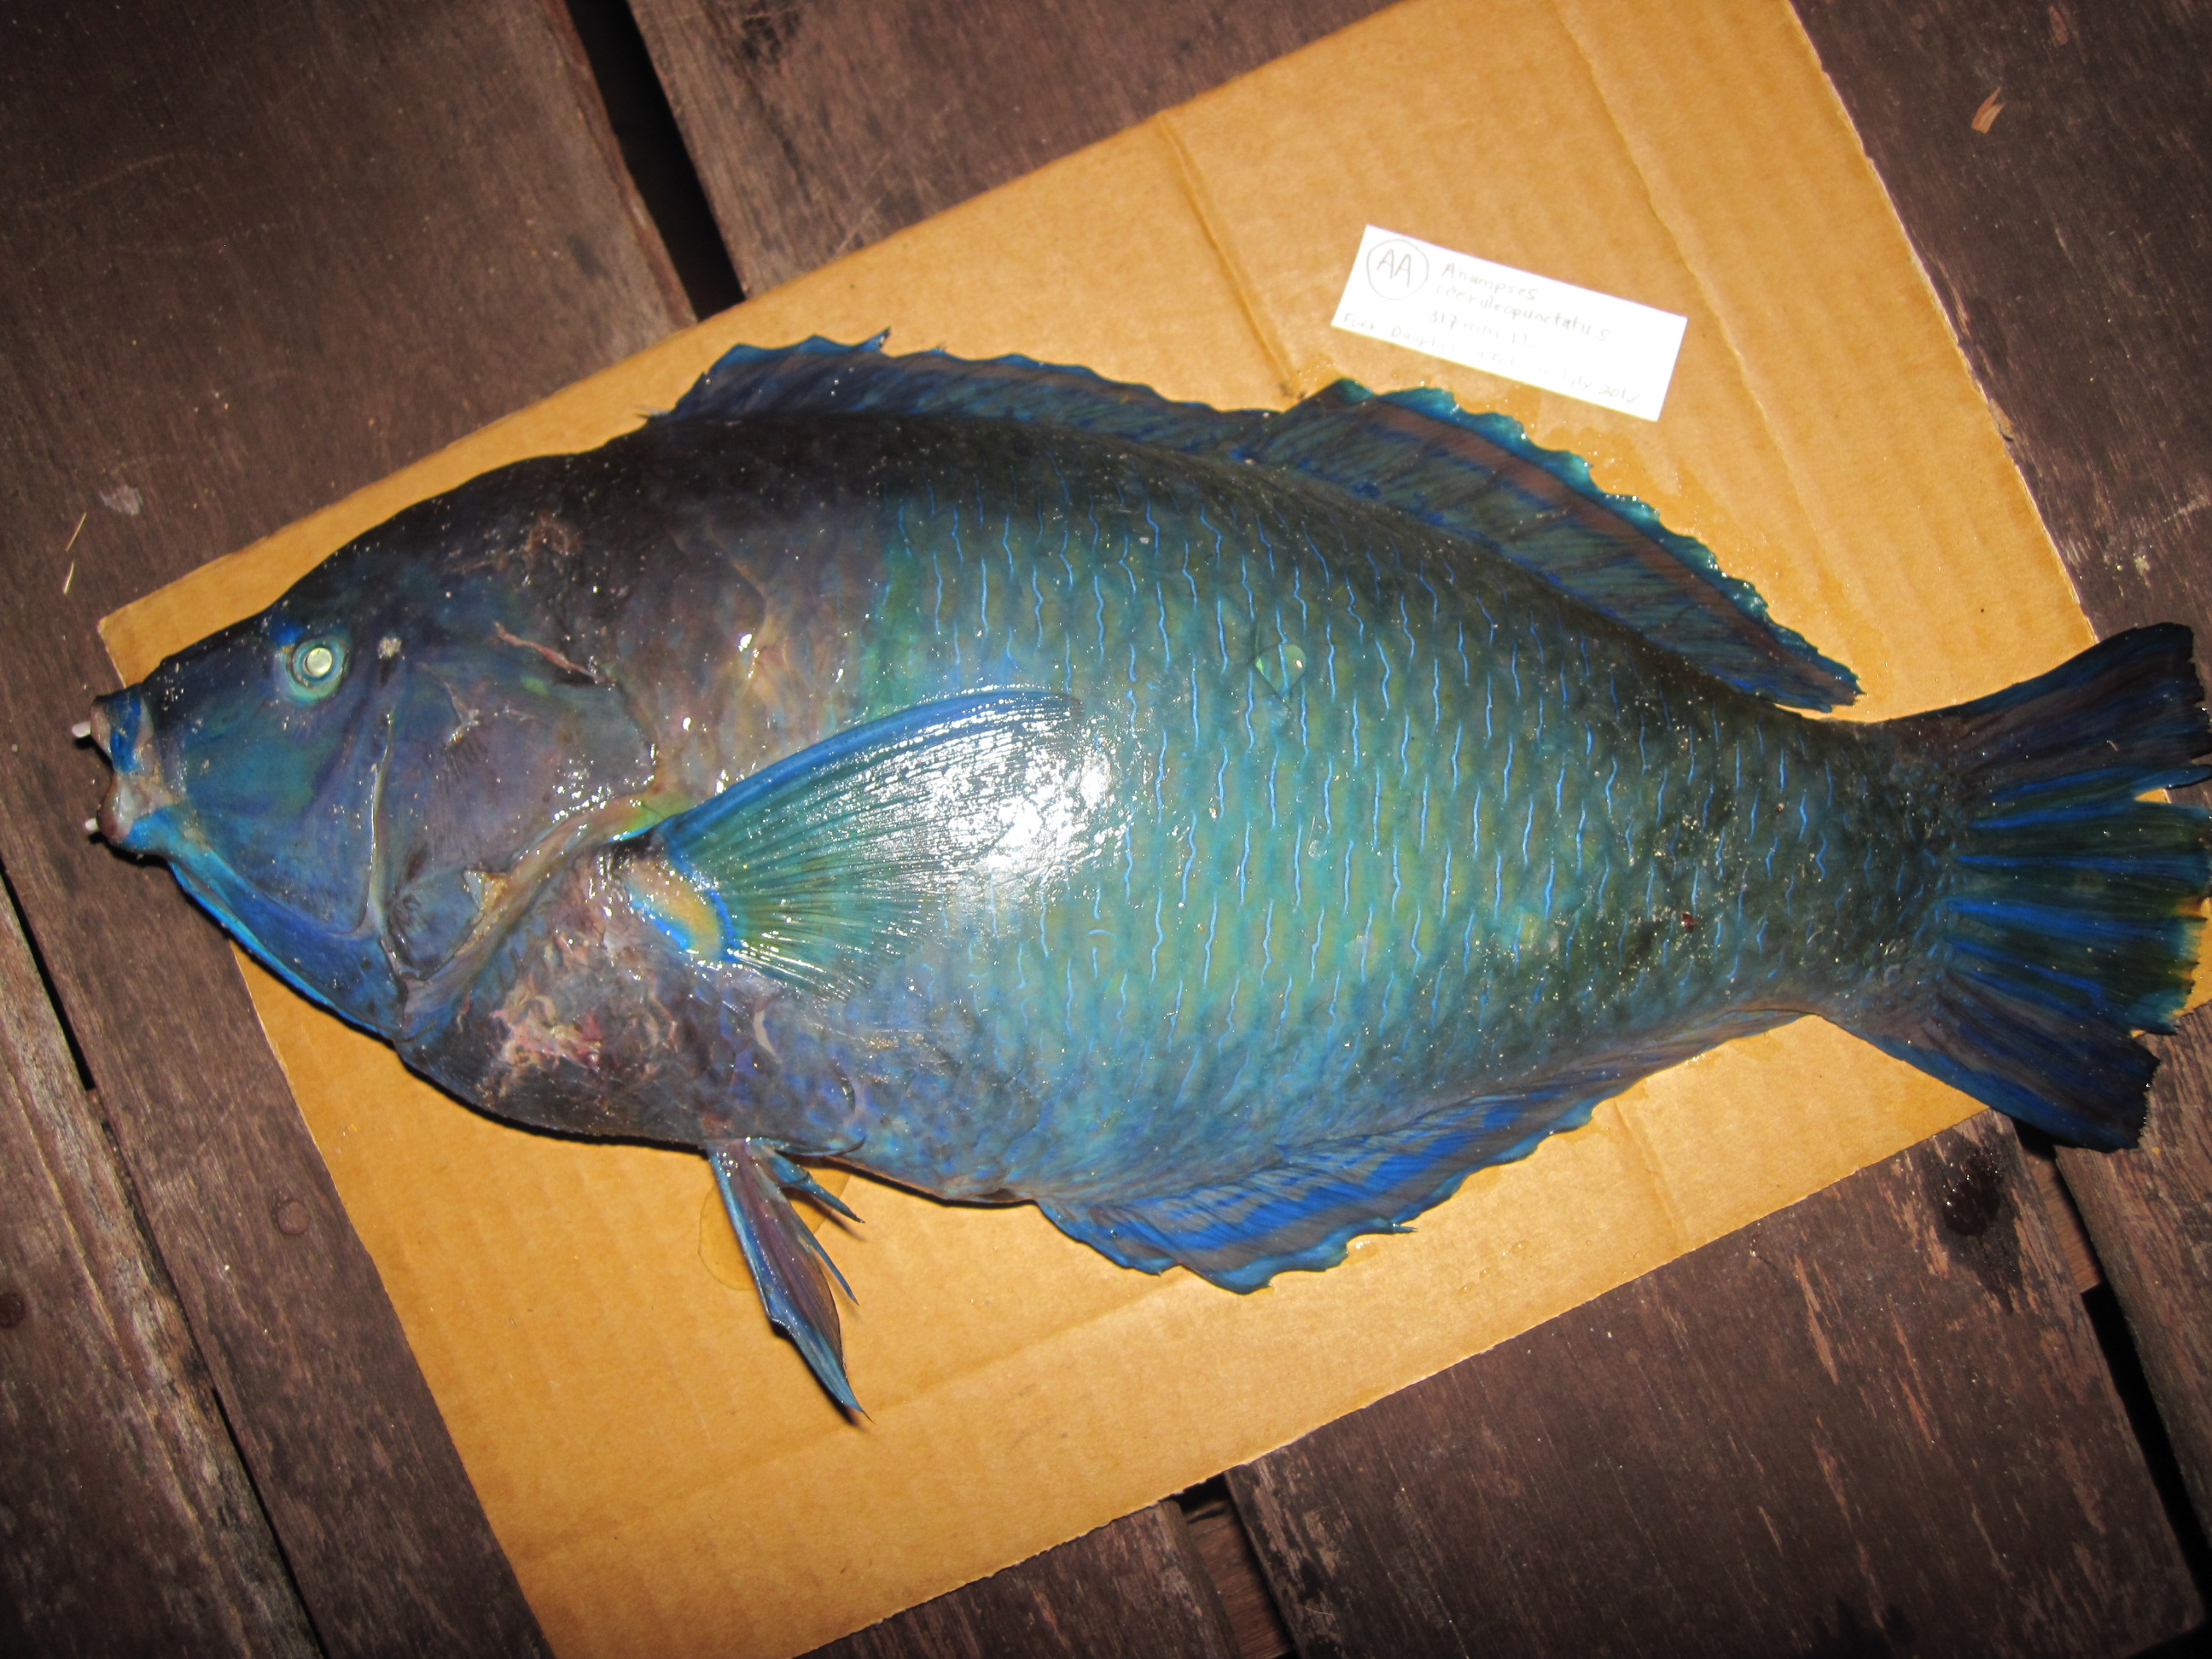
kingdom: Animalia
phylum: Chordata
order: Perciformes
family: Labridae
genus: Anampses
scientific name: Anampses caeruleopunctatus
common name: Bluespotted wrasse
